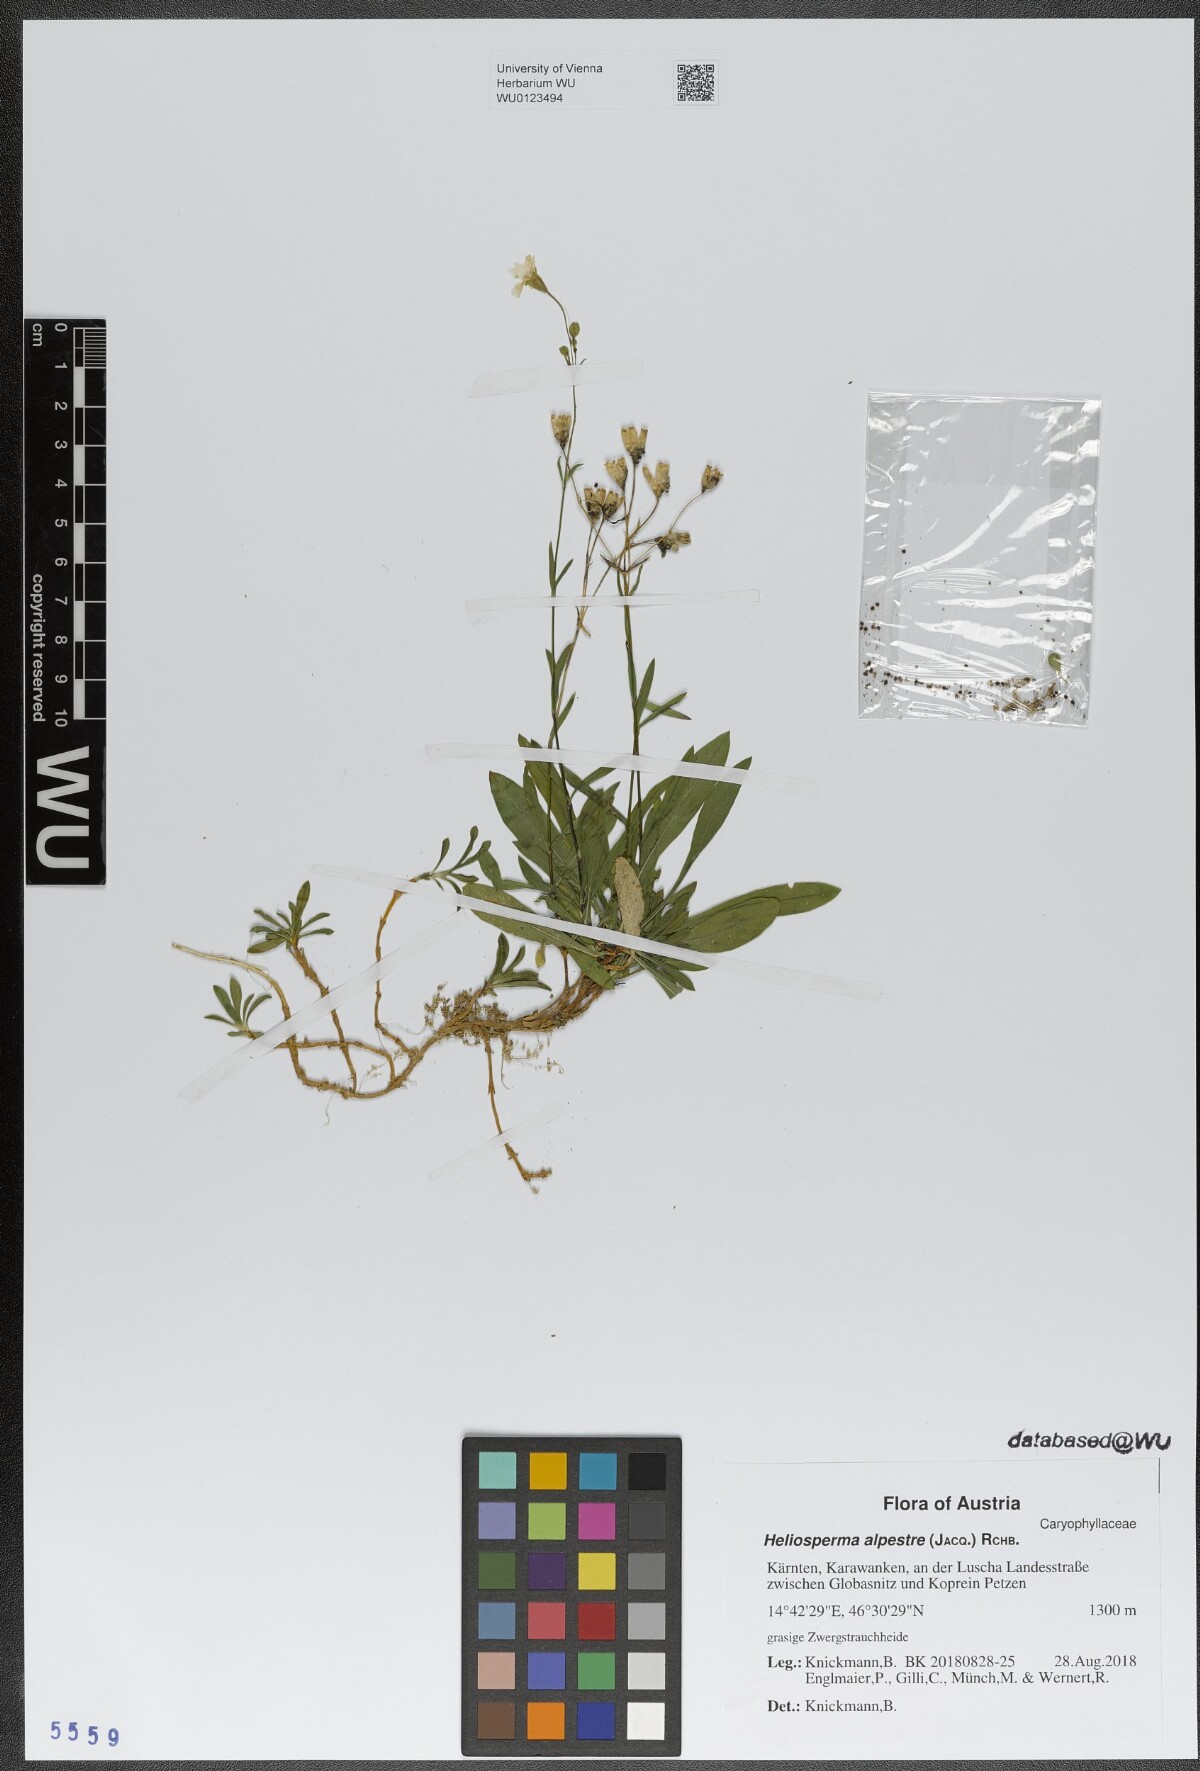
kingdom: Plantae
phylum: Tracheophyta
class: Magnoliopsida
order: Caryophyllales
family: Caryophyllaceae
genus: Heliosperma
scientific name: Heliosperma alpestre
